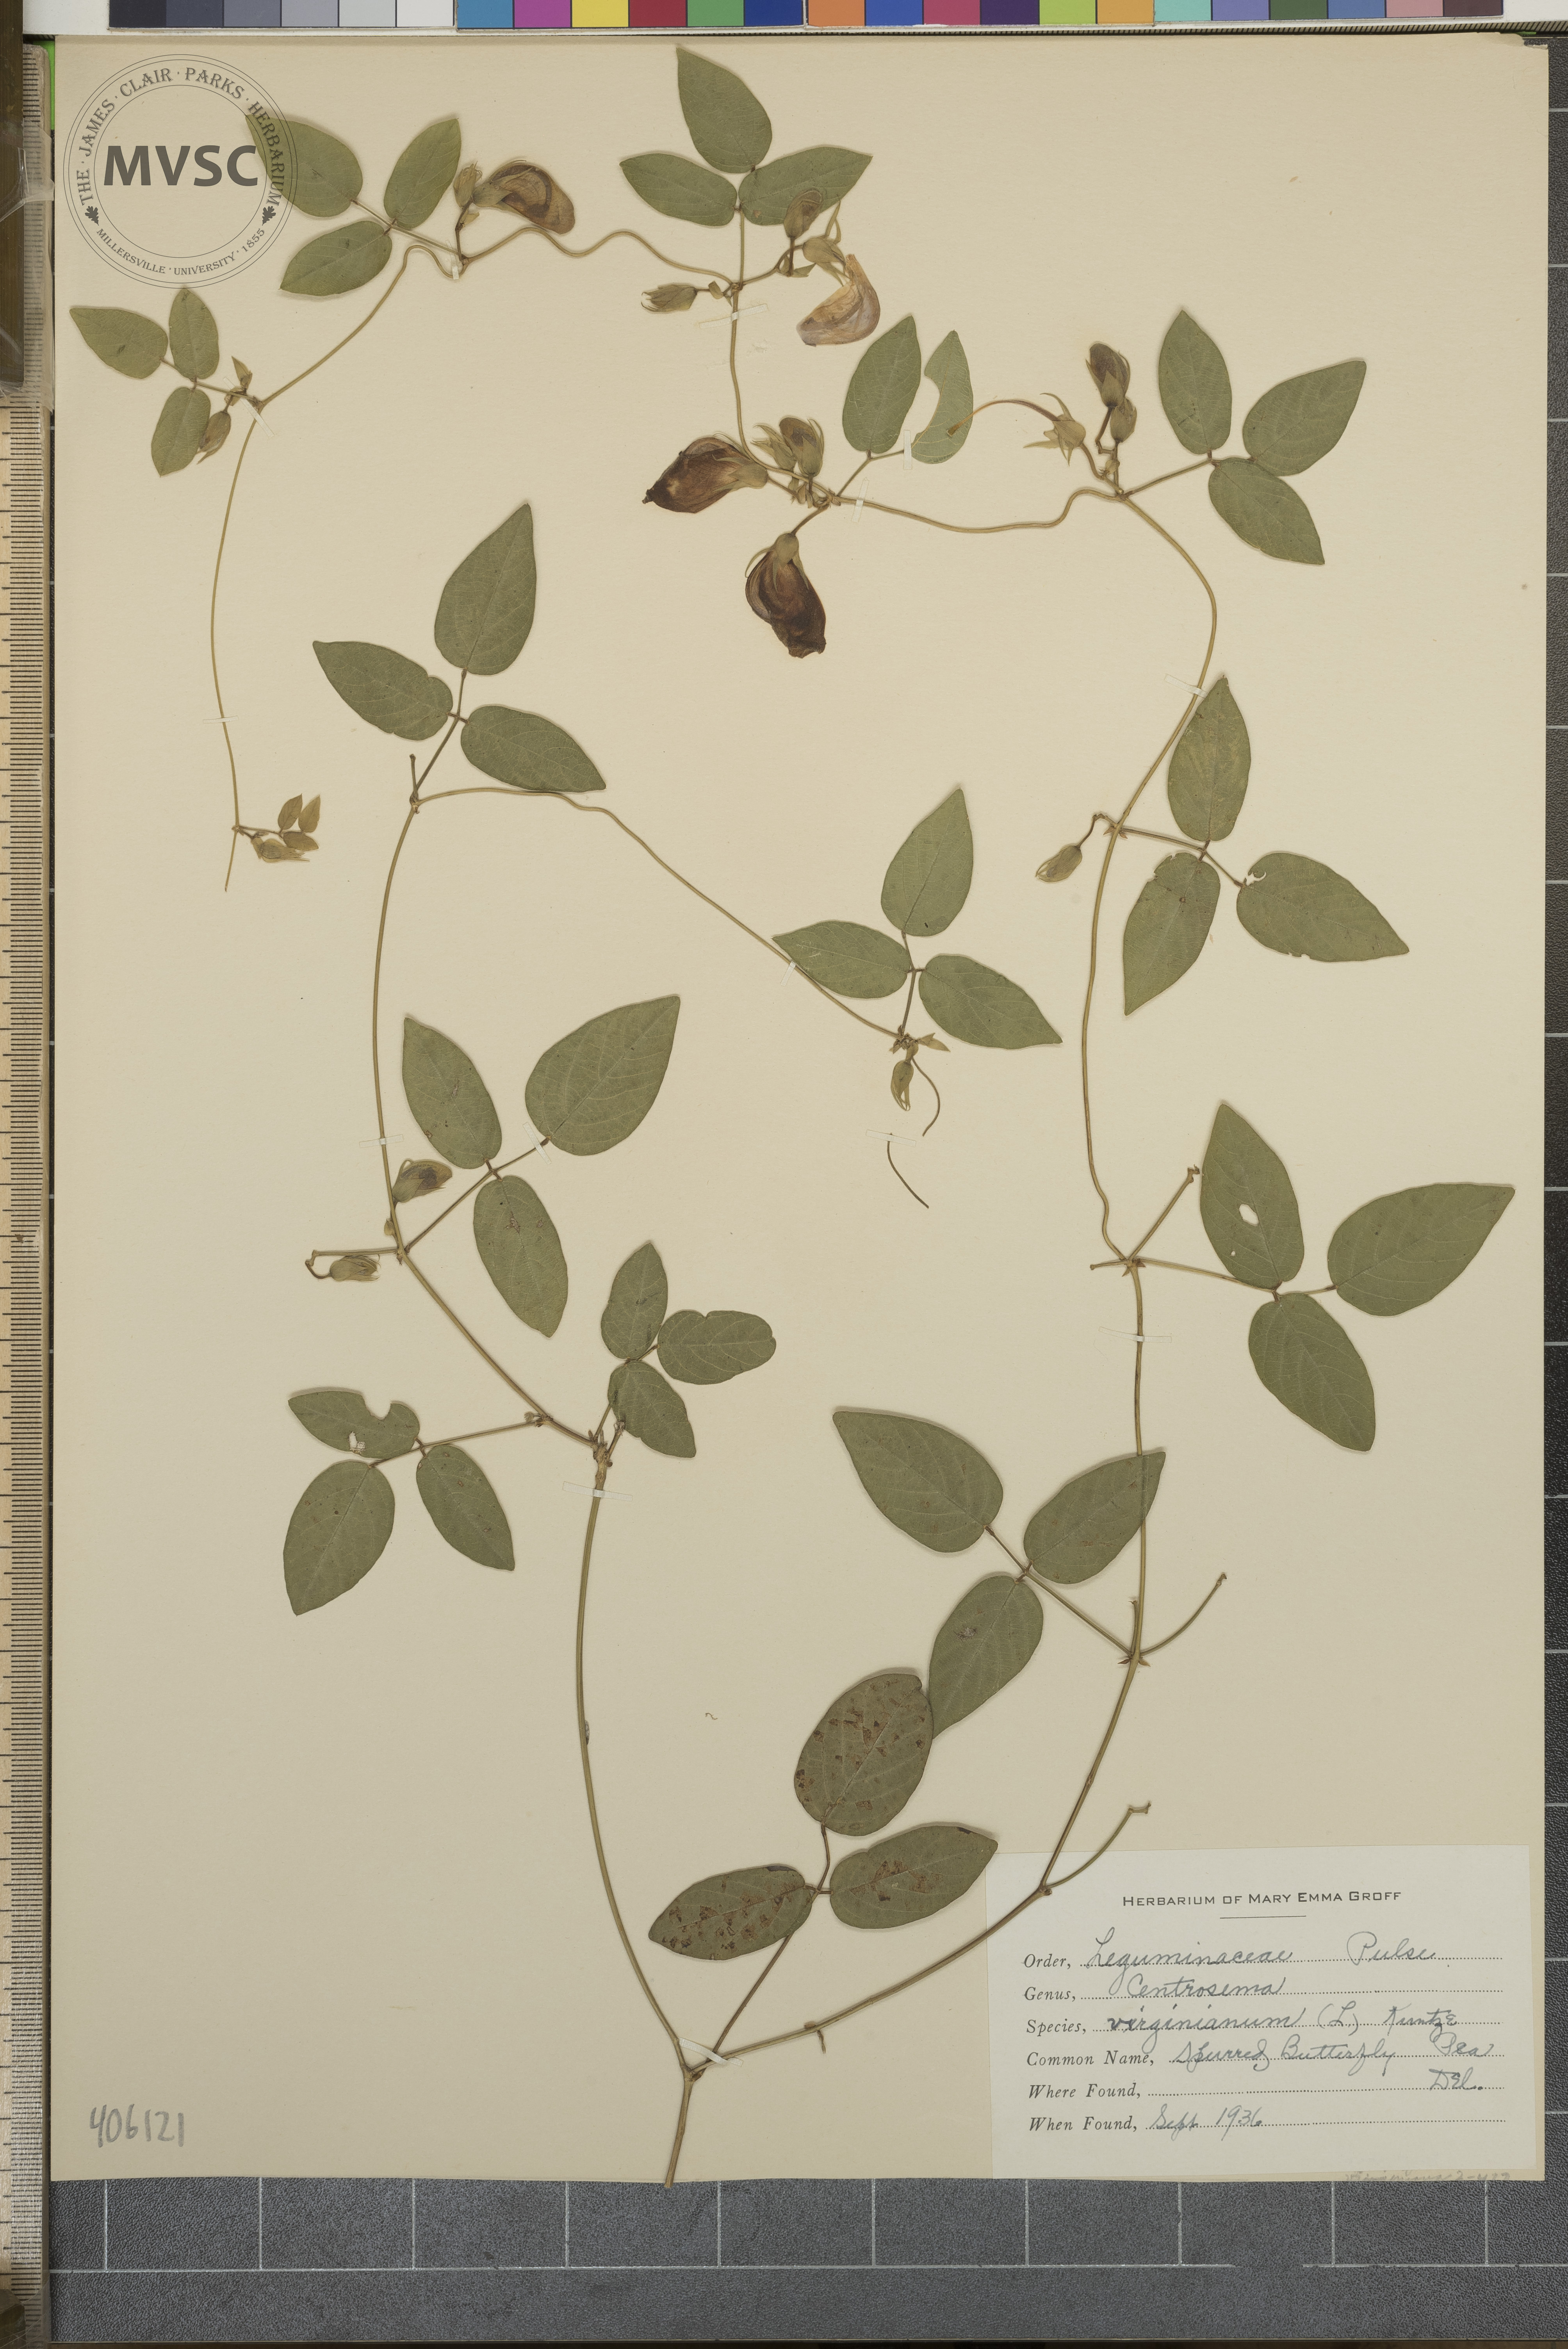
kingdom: Plantae
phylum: Tracheophyta
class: Magnoliopsida
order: Fabales
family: Fabaceae
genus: Centrosema
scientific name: Centrosema virginianum
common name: Butterfly-pea
